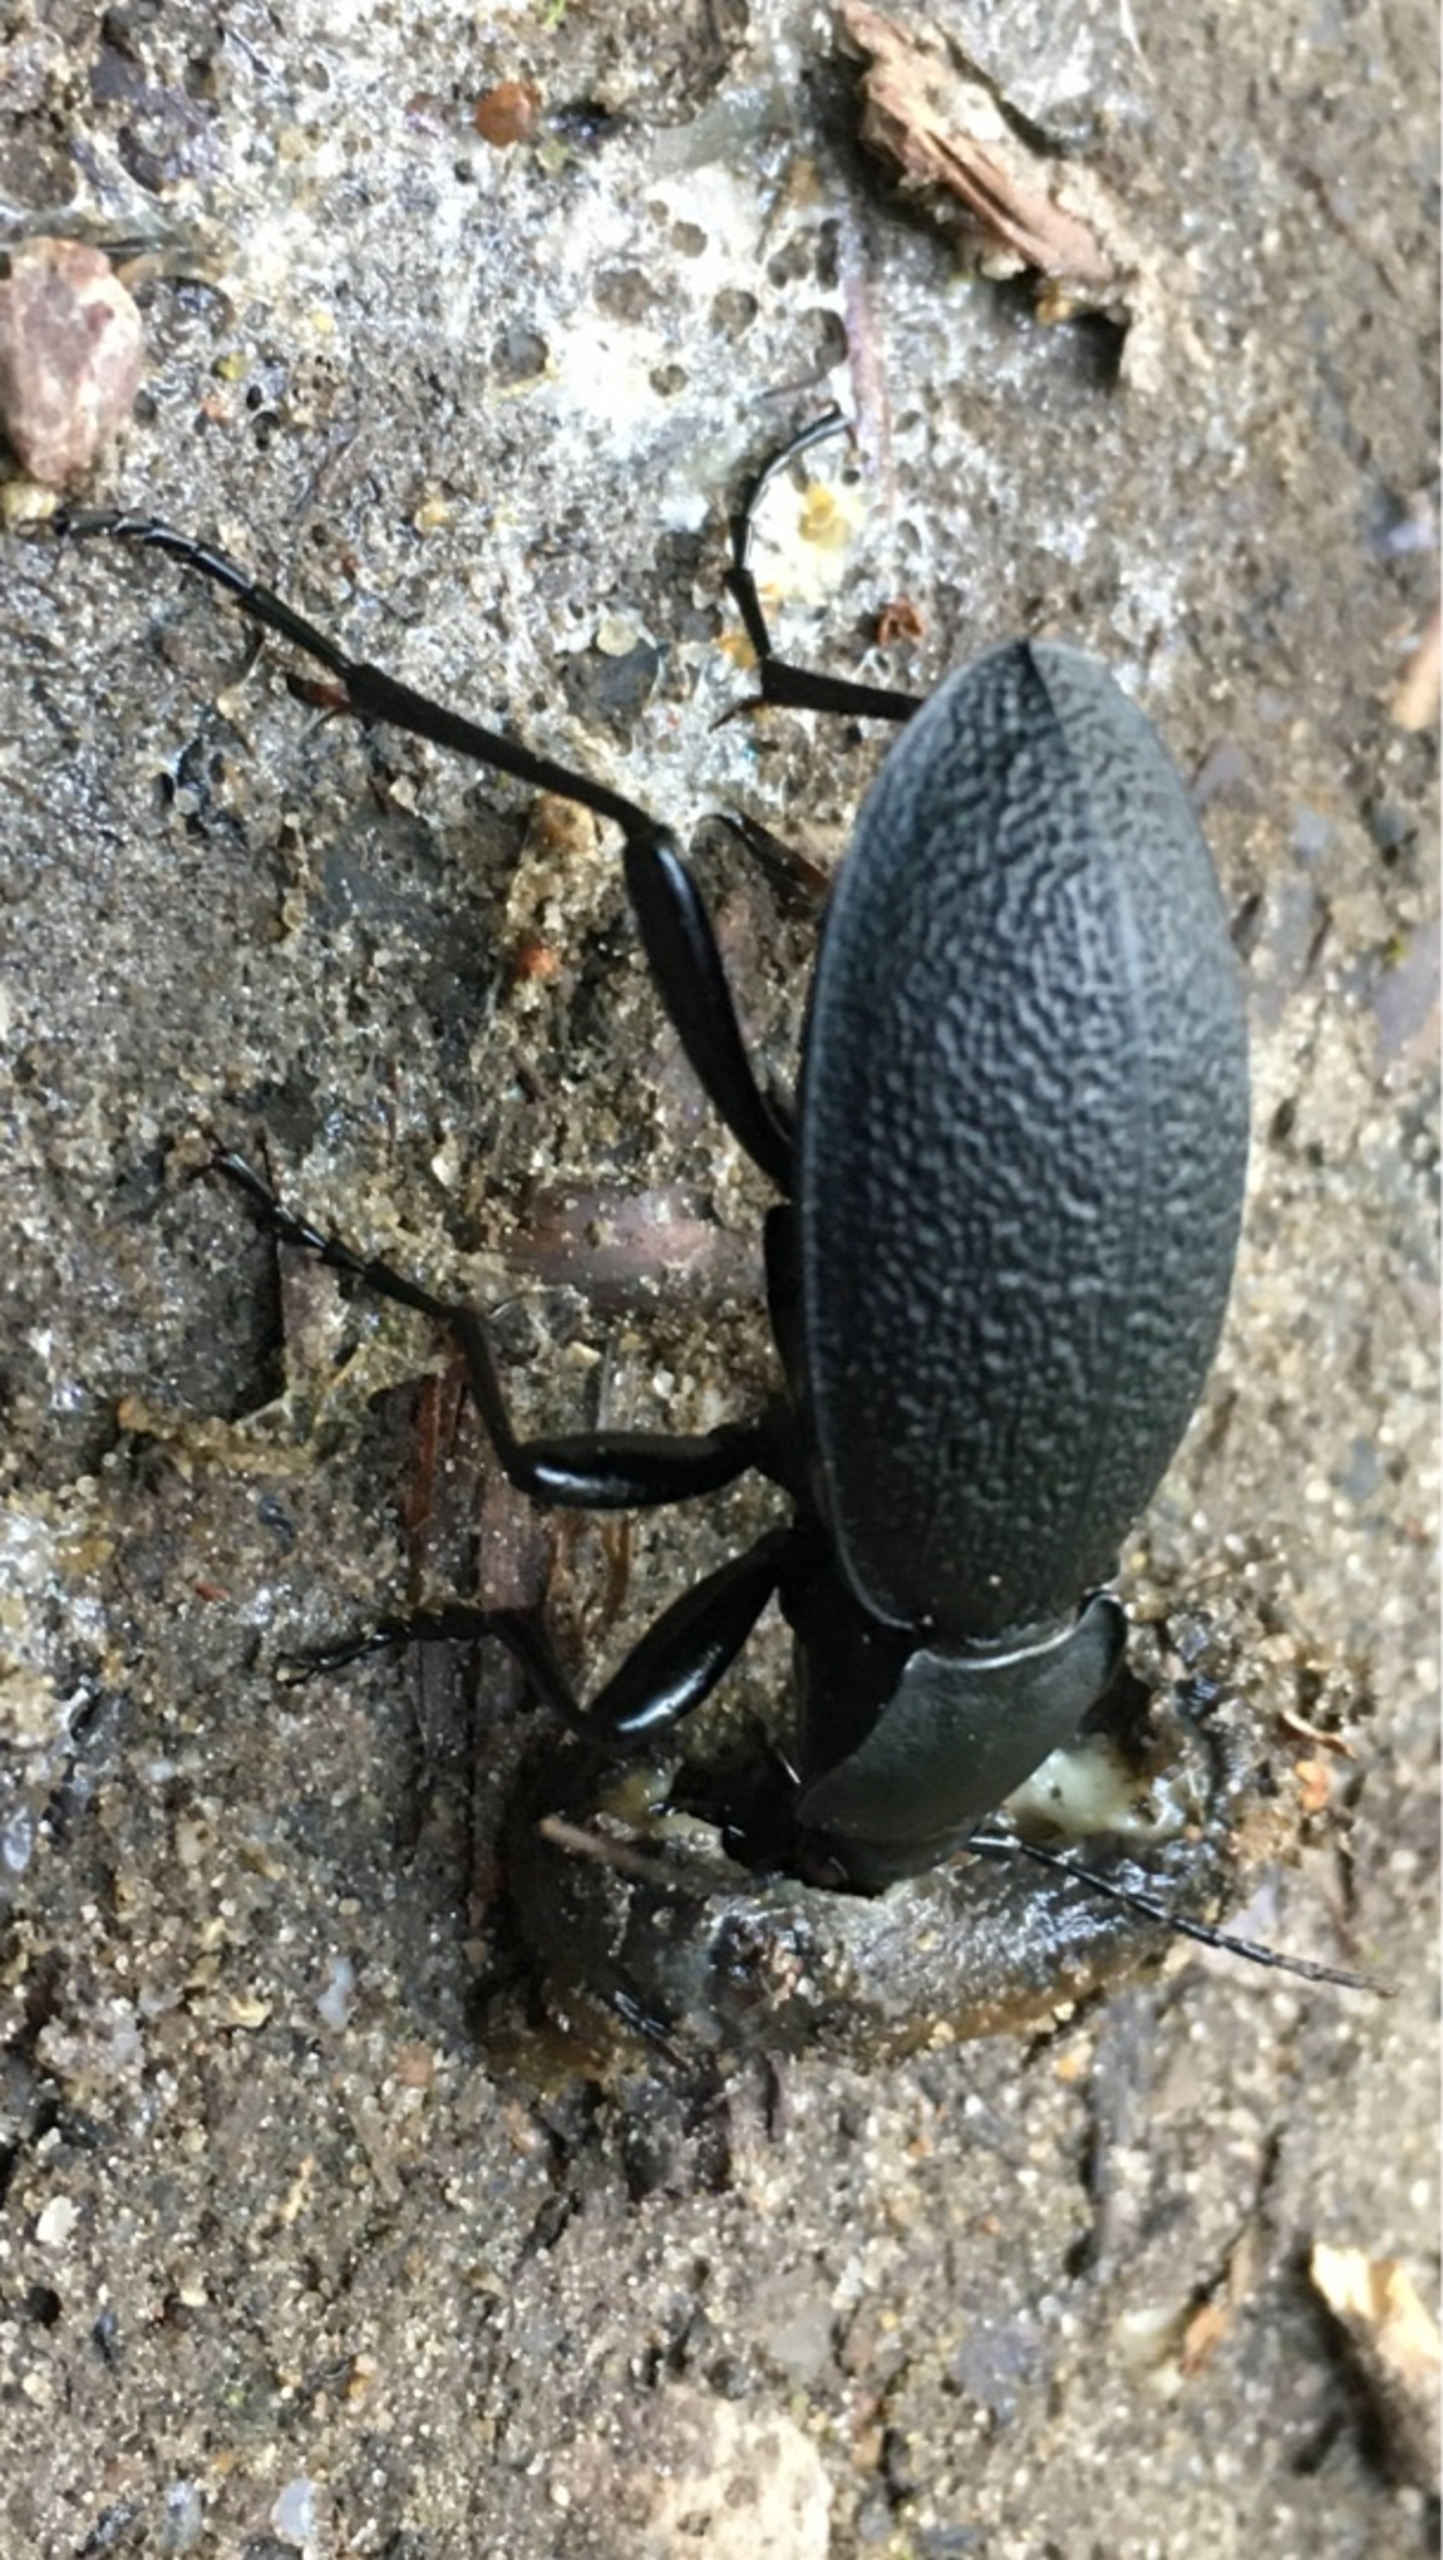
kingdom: Animalia
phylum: Arthropoda
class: Insecta
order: Coleoptera
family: Carabidae
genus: Carabus
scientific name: Carabus coriaceus
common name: Læderløber
